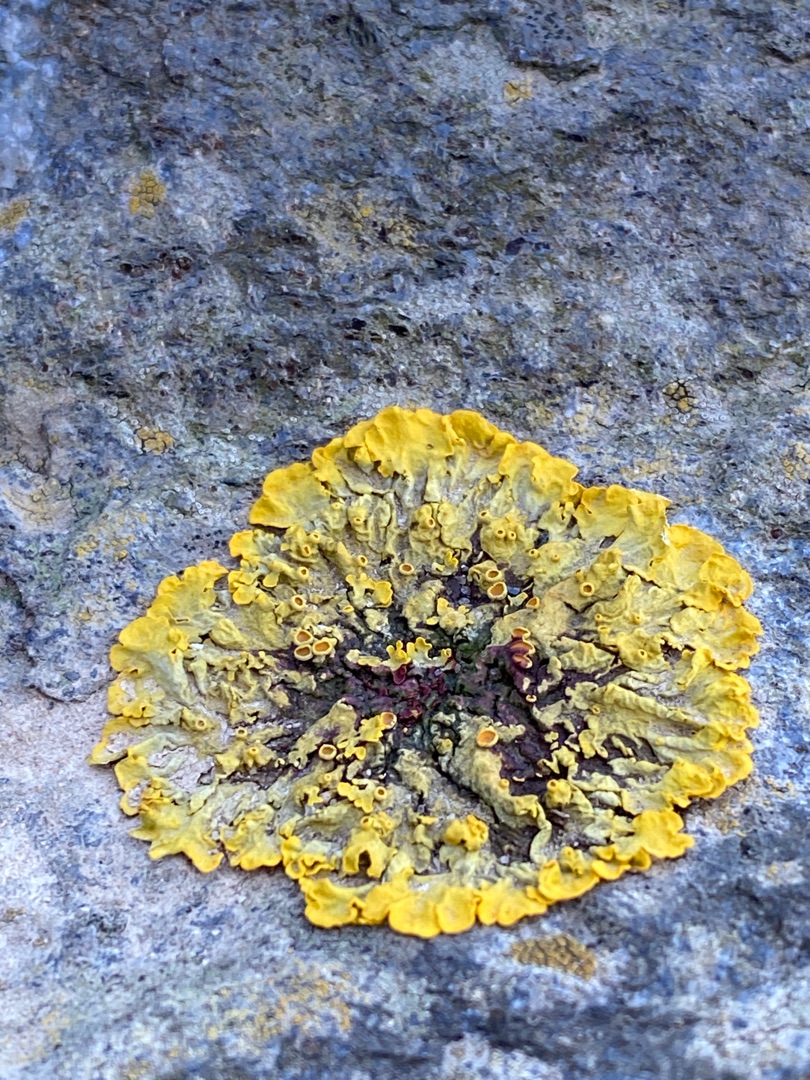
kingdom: Fungi
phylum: Ascomycota
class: Lecanoromycetes
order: Teloschistales
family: Teloschistaceae
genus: Xanthoria
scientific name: Xanthoria parietina
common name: Almindelig væggelav
